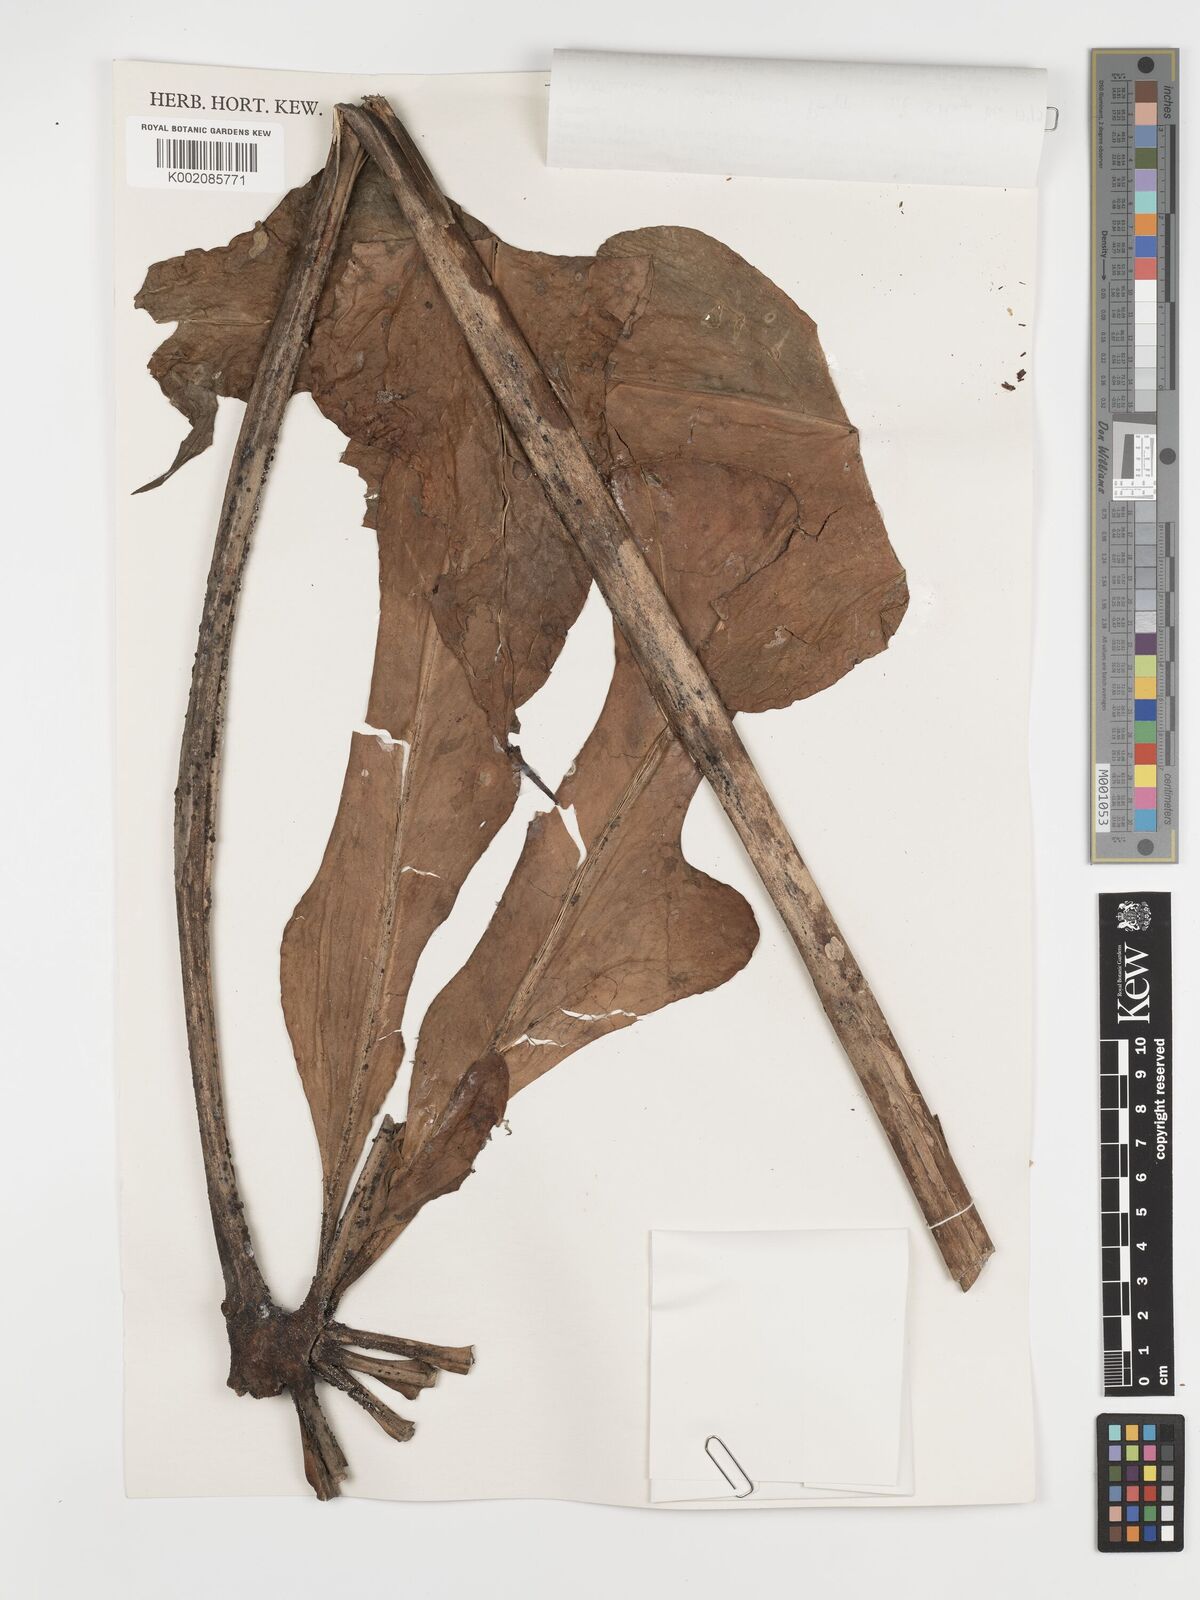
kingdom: Plantae
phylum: Tracheophyta
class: Liliopsida
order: Alismatales
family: Araceae
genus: Anthurium
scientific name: Anthurium clavigerum
